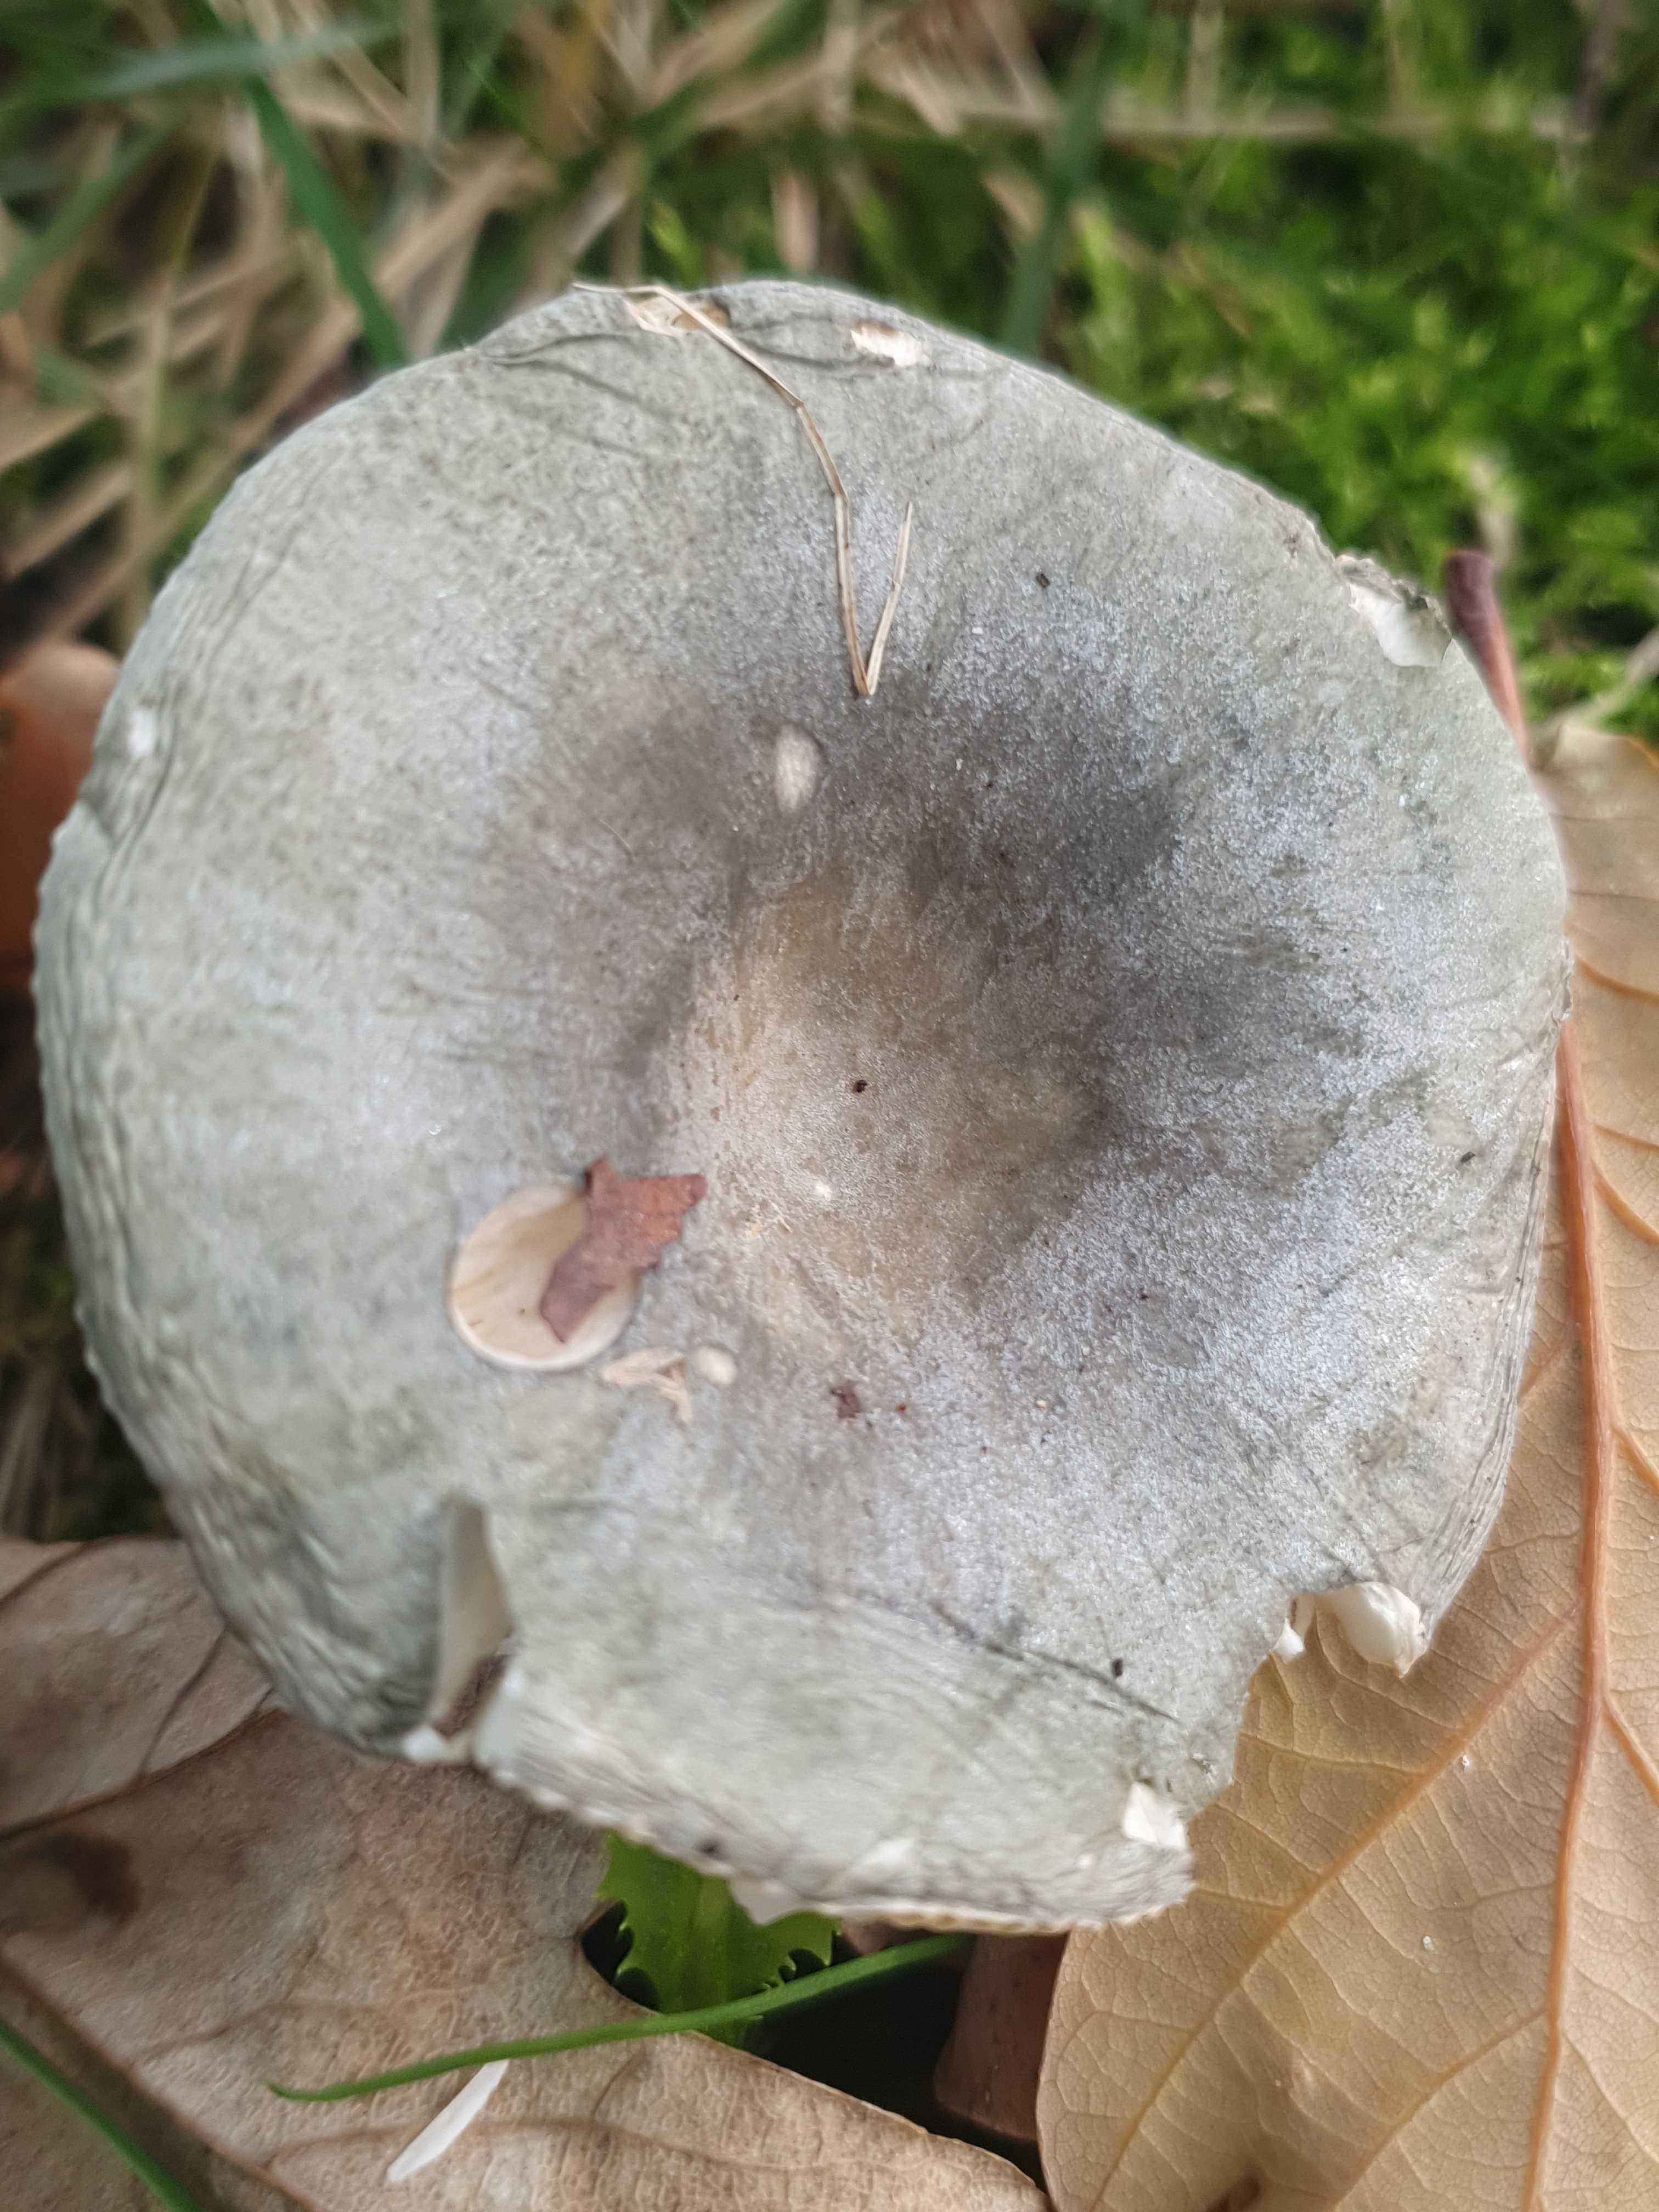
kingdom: Fungi
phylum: Basidiomycota
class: Agaricomycetes
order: Russulales
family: Russulaceae
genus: Russula
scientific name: Russula parazurea
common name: blågrå skørhat
